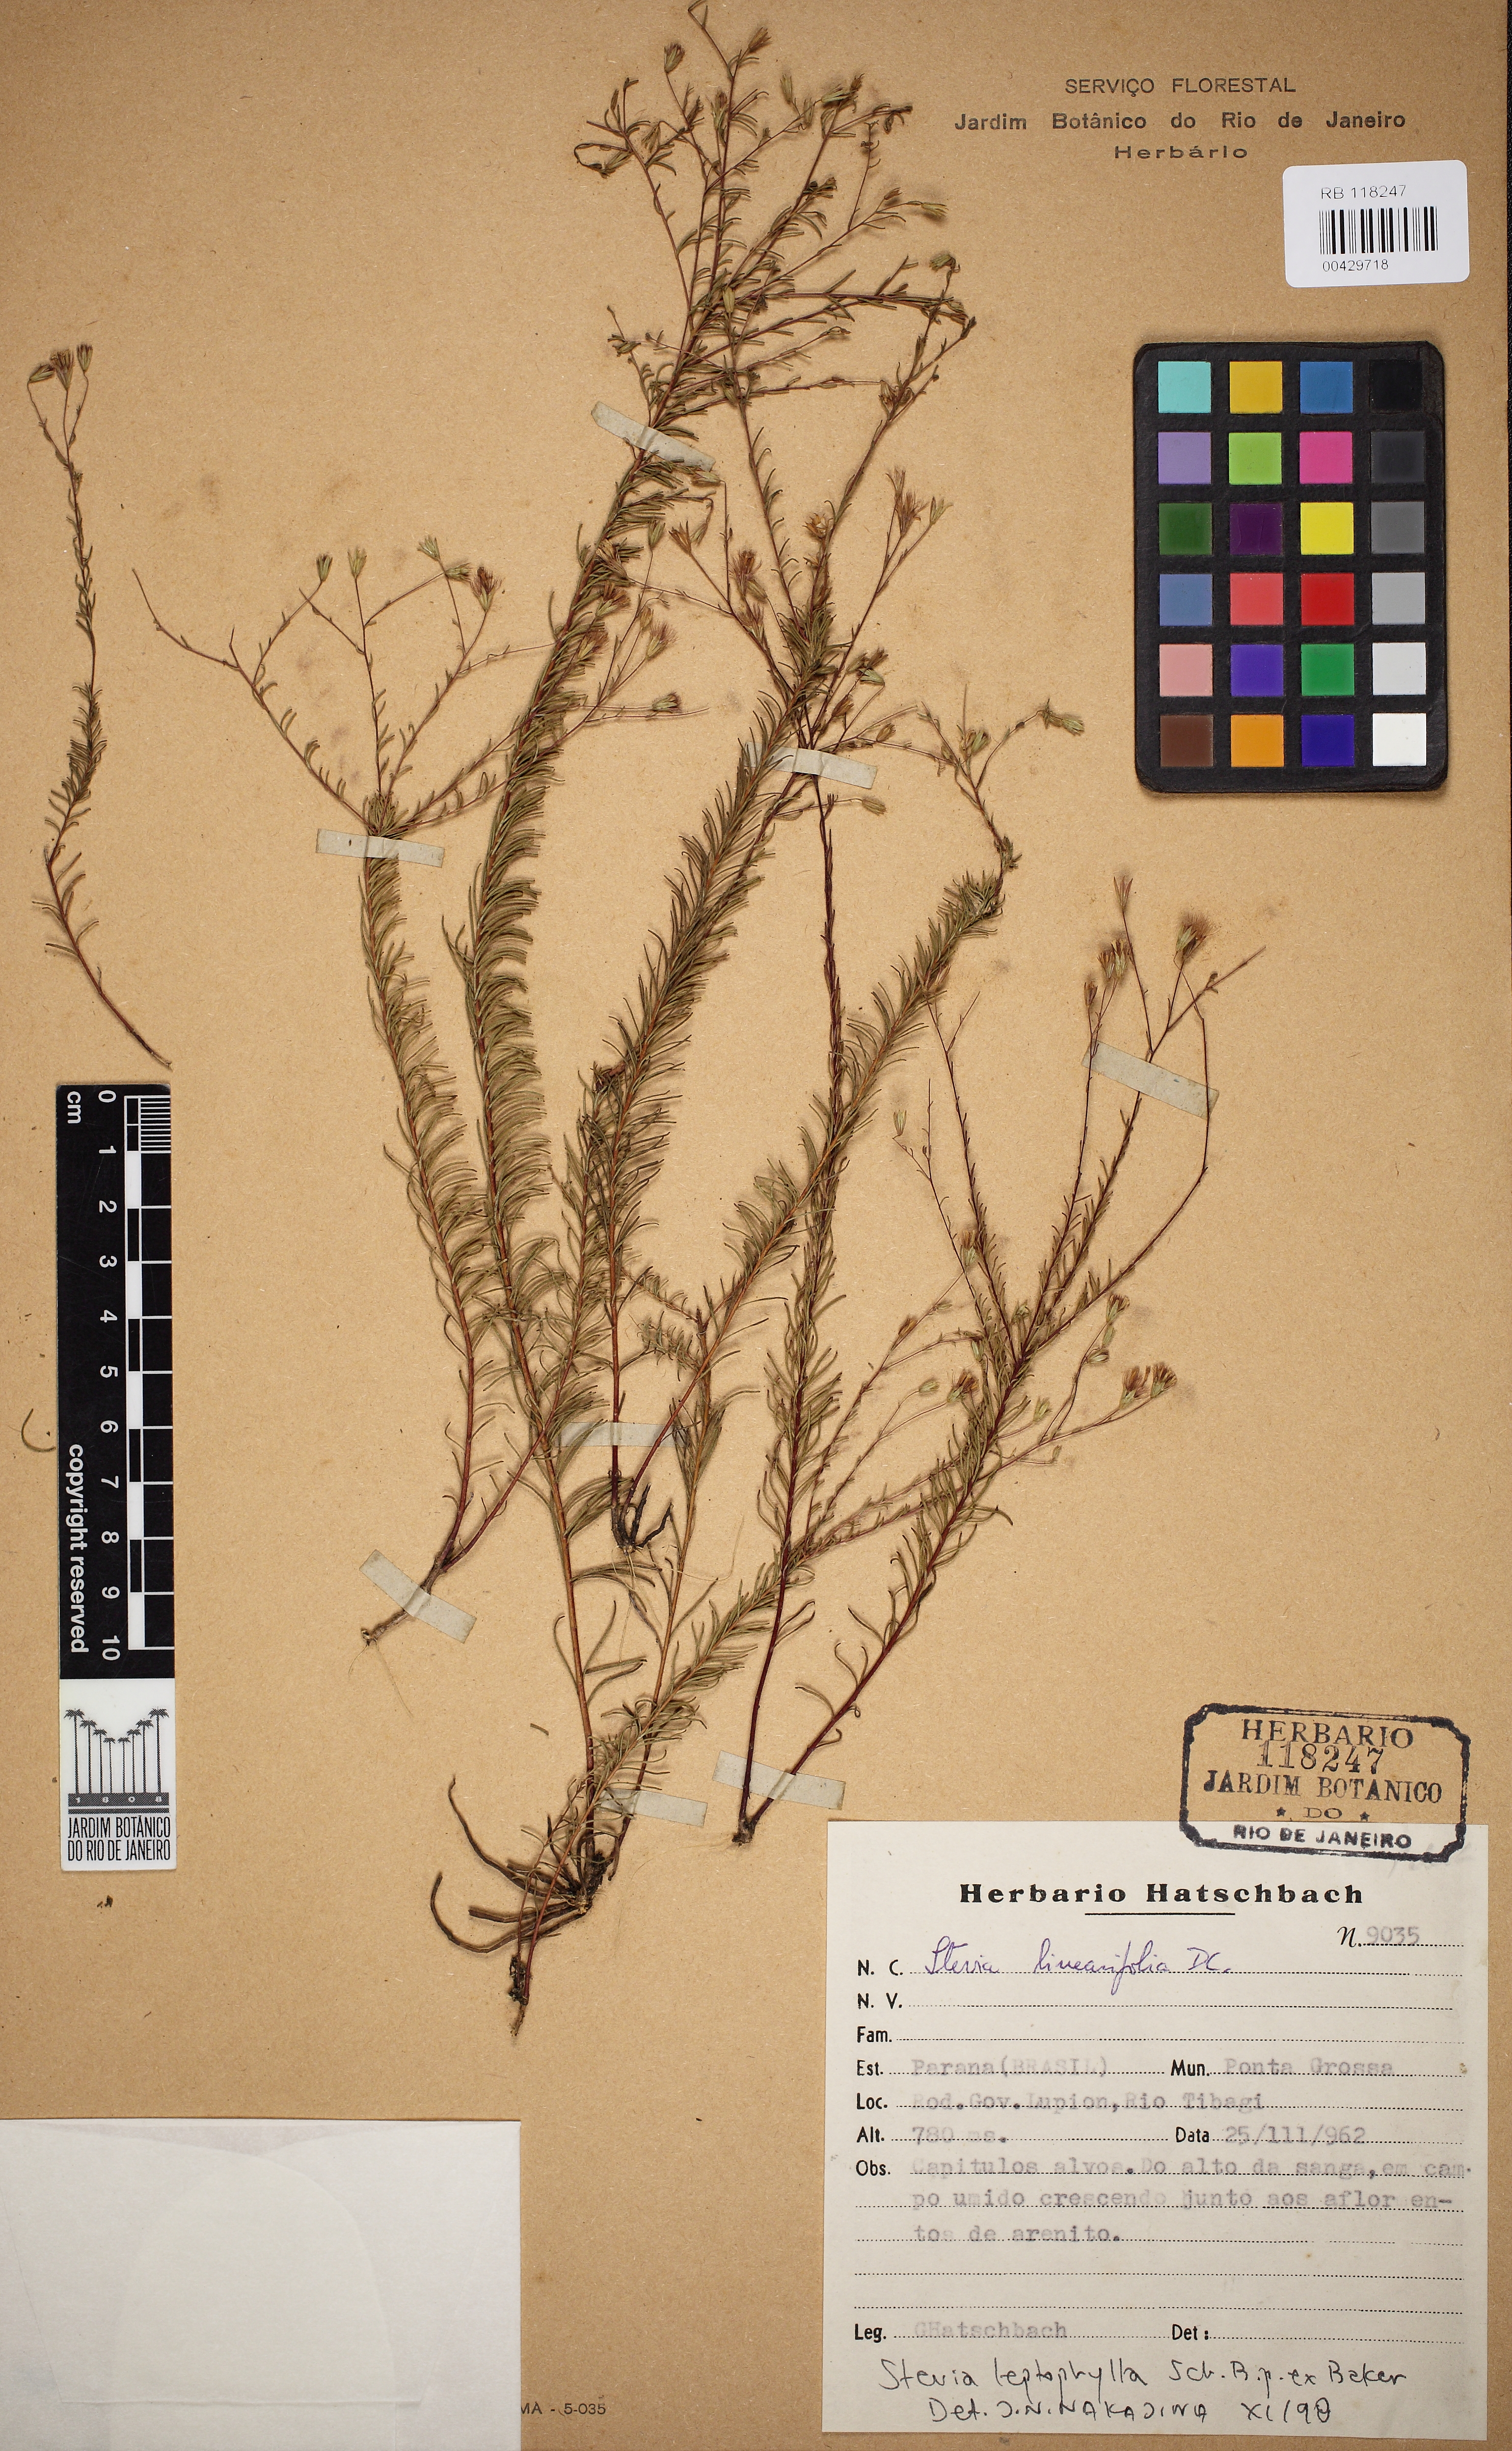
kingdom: Plantae
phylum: Tracheophyta
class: Magnoliopsida
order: Asterales
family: Asteraceae
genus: Stevia
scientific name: Stevia leptophylla
